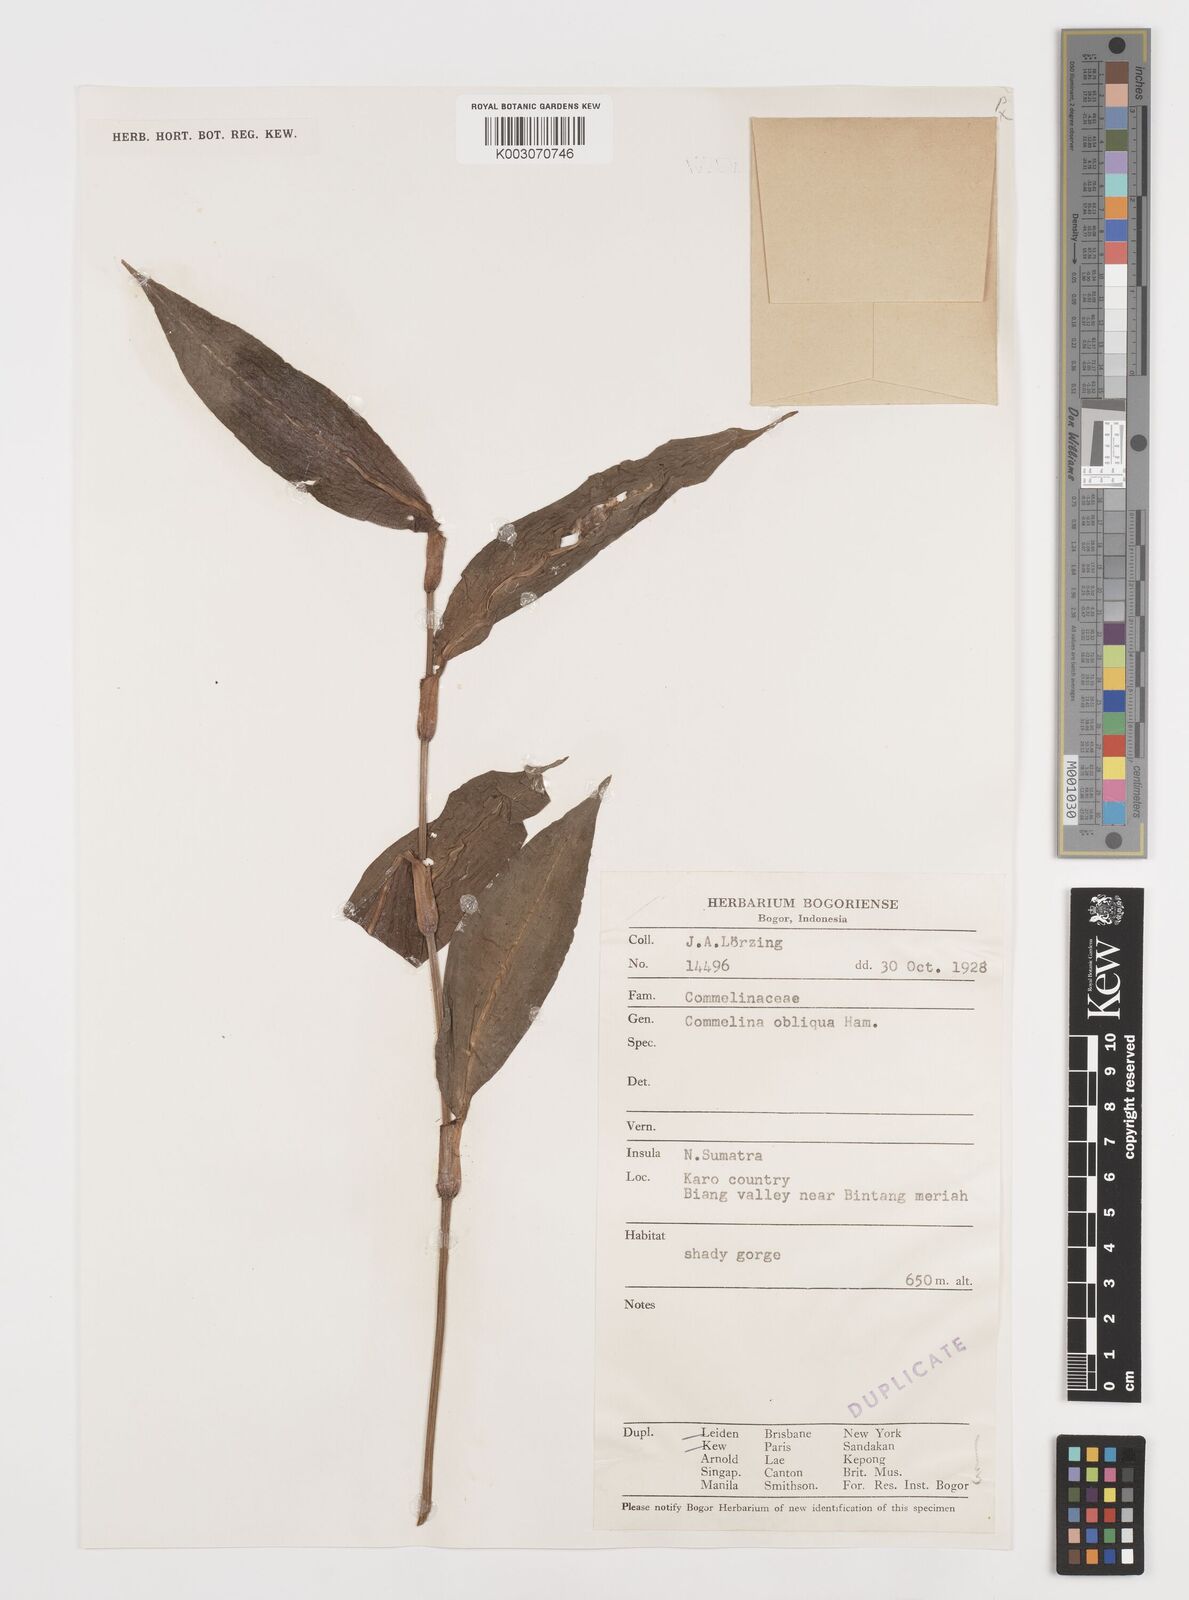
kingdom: Plantae
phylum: Tracheophyta
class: Liliopsida
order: Commelinales
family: Commelinaceae
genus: Commelina
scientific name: Commelina paludosa
